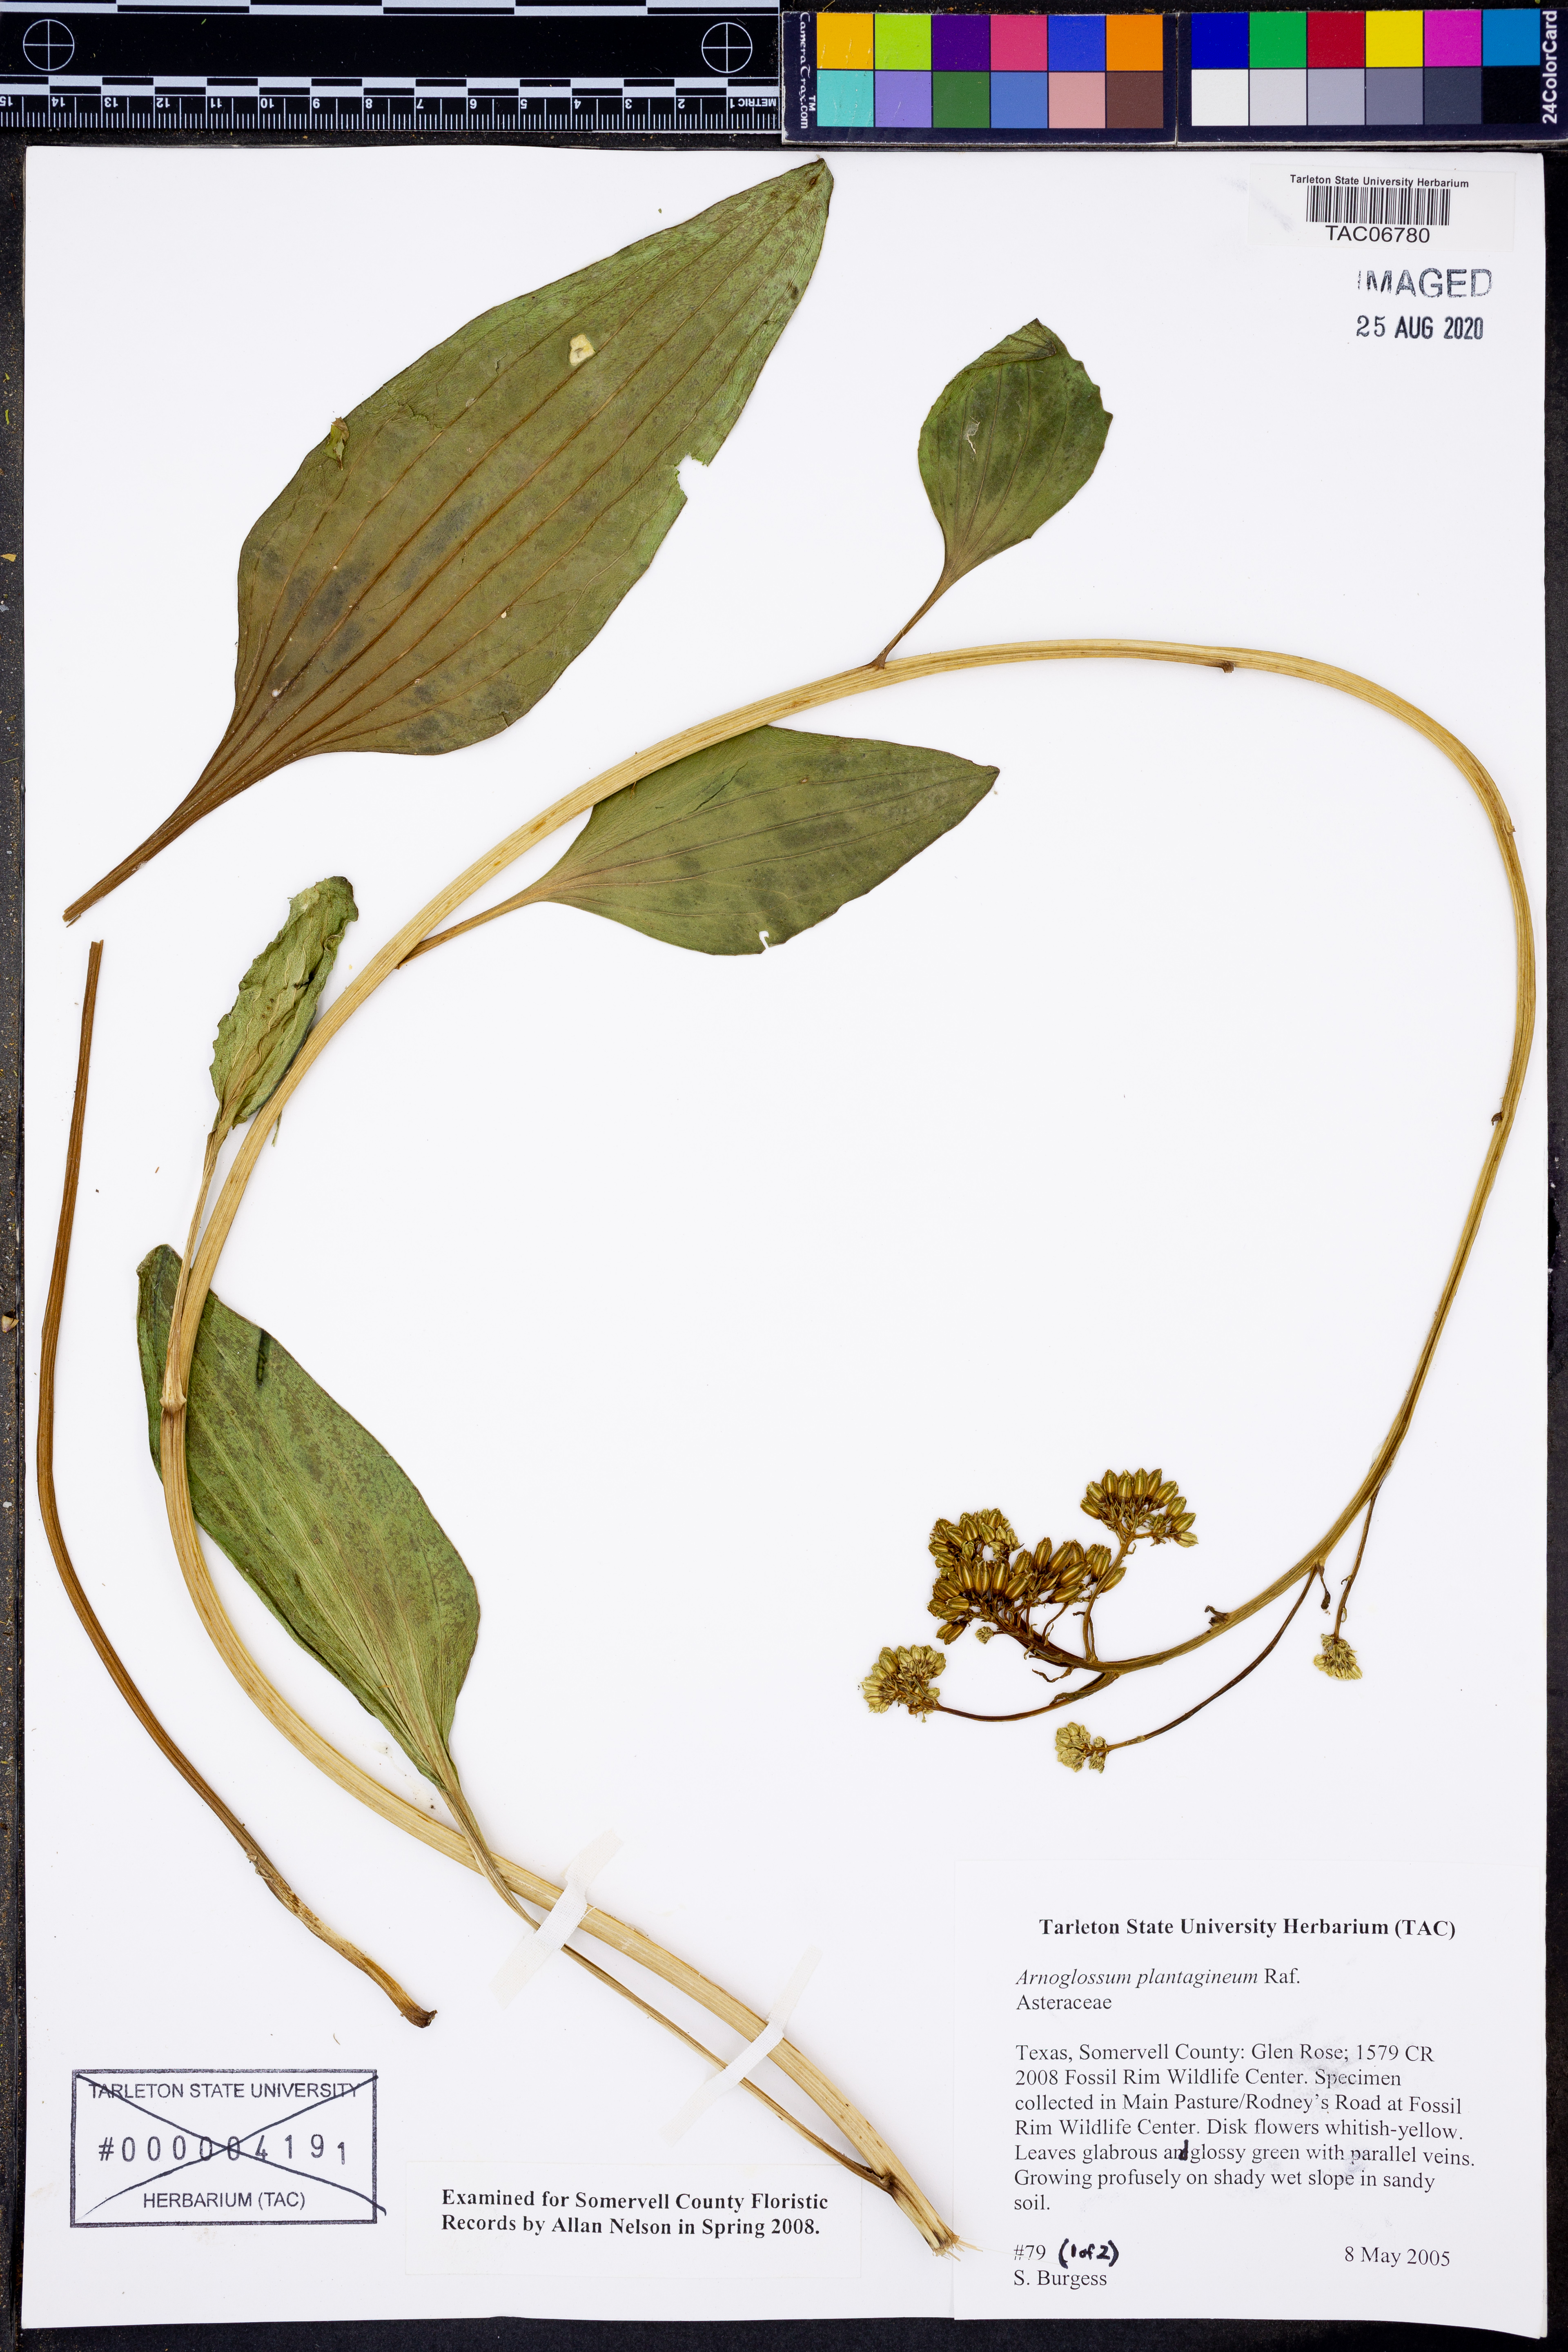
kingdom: Plantae
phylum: Tracheophyta
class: Magnoliopsida
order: Asterales
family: Asteraceae
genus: Arnoglossum
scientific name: Arnoglossum plantagineum
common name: Groove-stemmed indian-plantain
